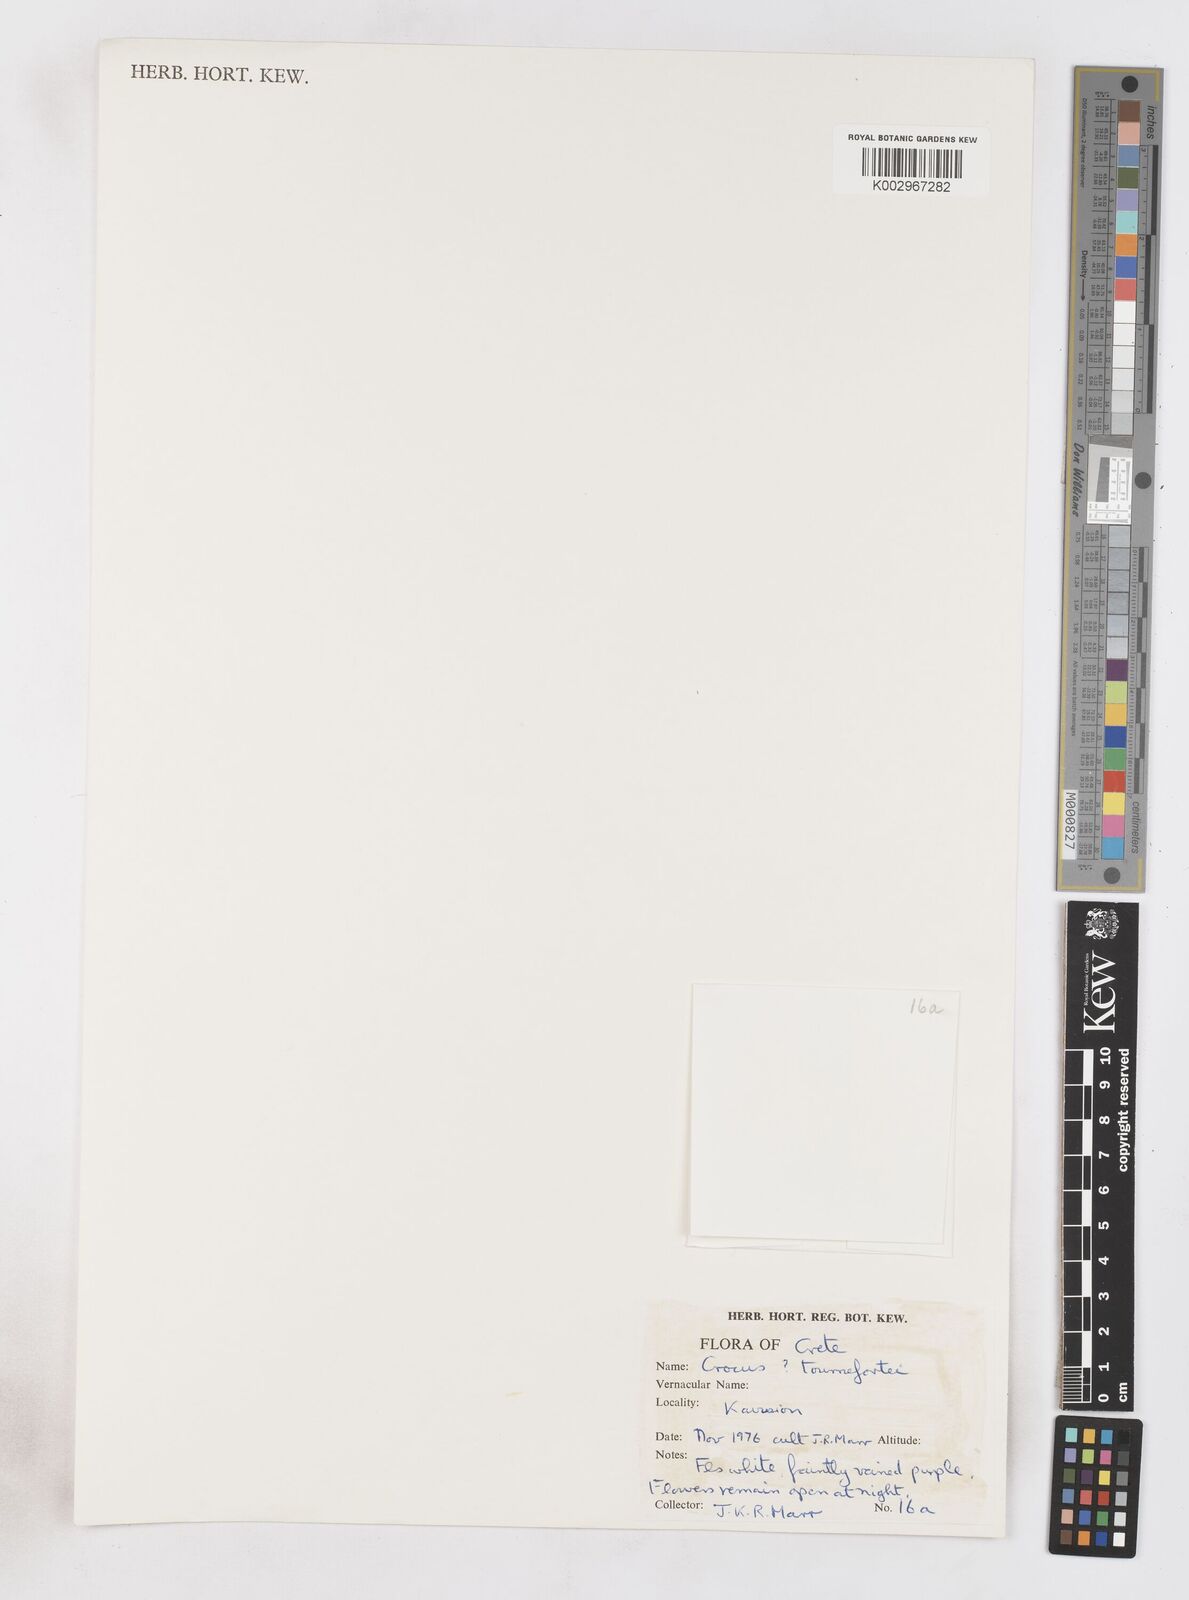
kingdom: Plantae
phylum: Tracheophyta
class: Liliopsida
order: Asparagales
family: Iridaceae
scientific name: Iridaceae
